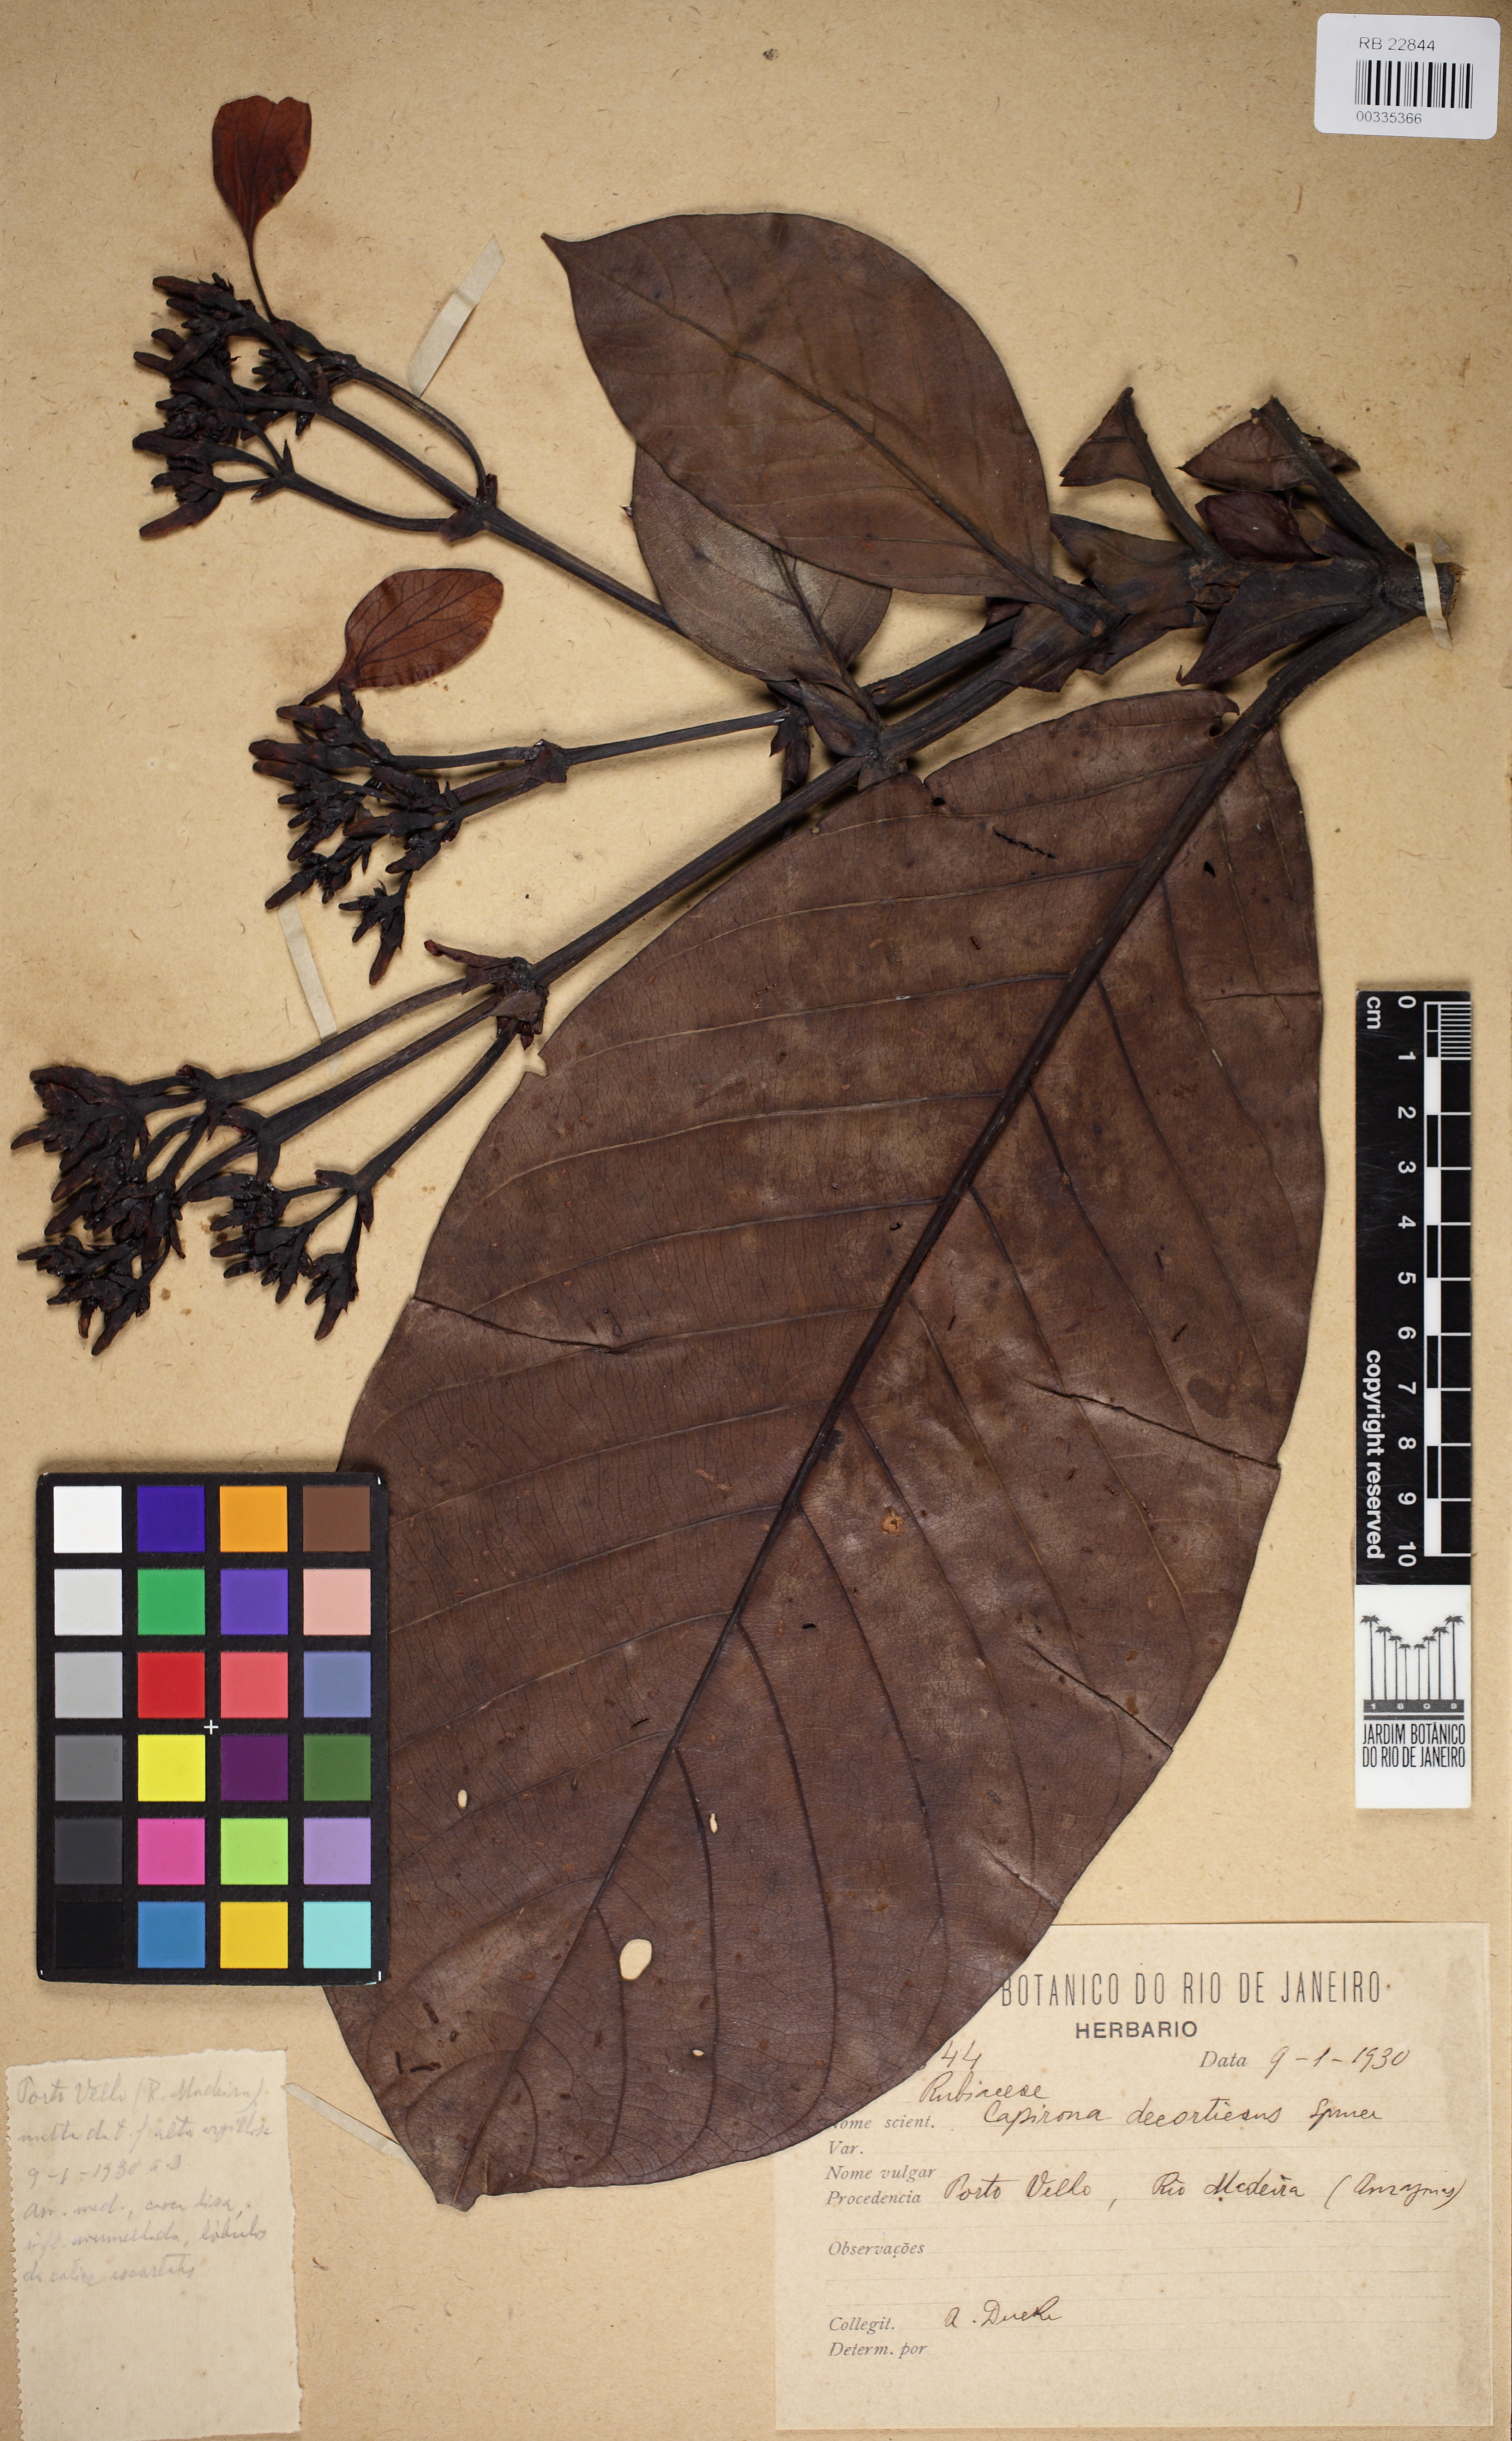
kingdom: Plantae
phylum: Tracheophyta
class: Magnoliopsida
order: Gentianales
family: Rubiaceae
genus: Capirona
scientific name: Capirona macrophylla
